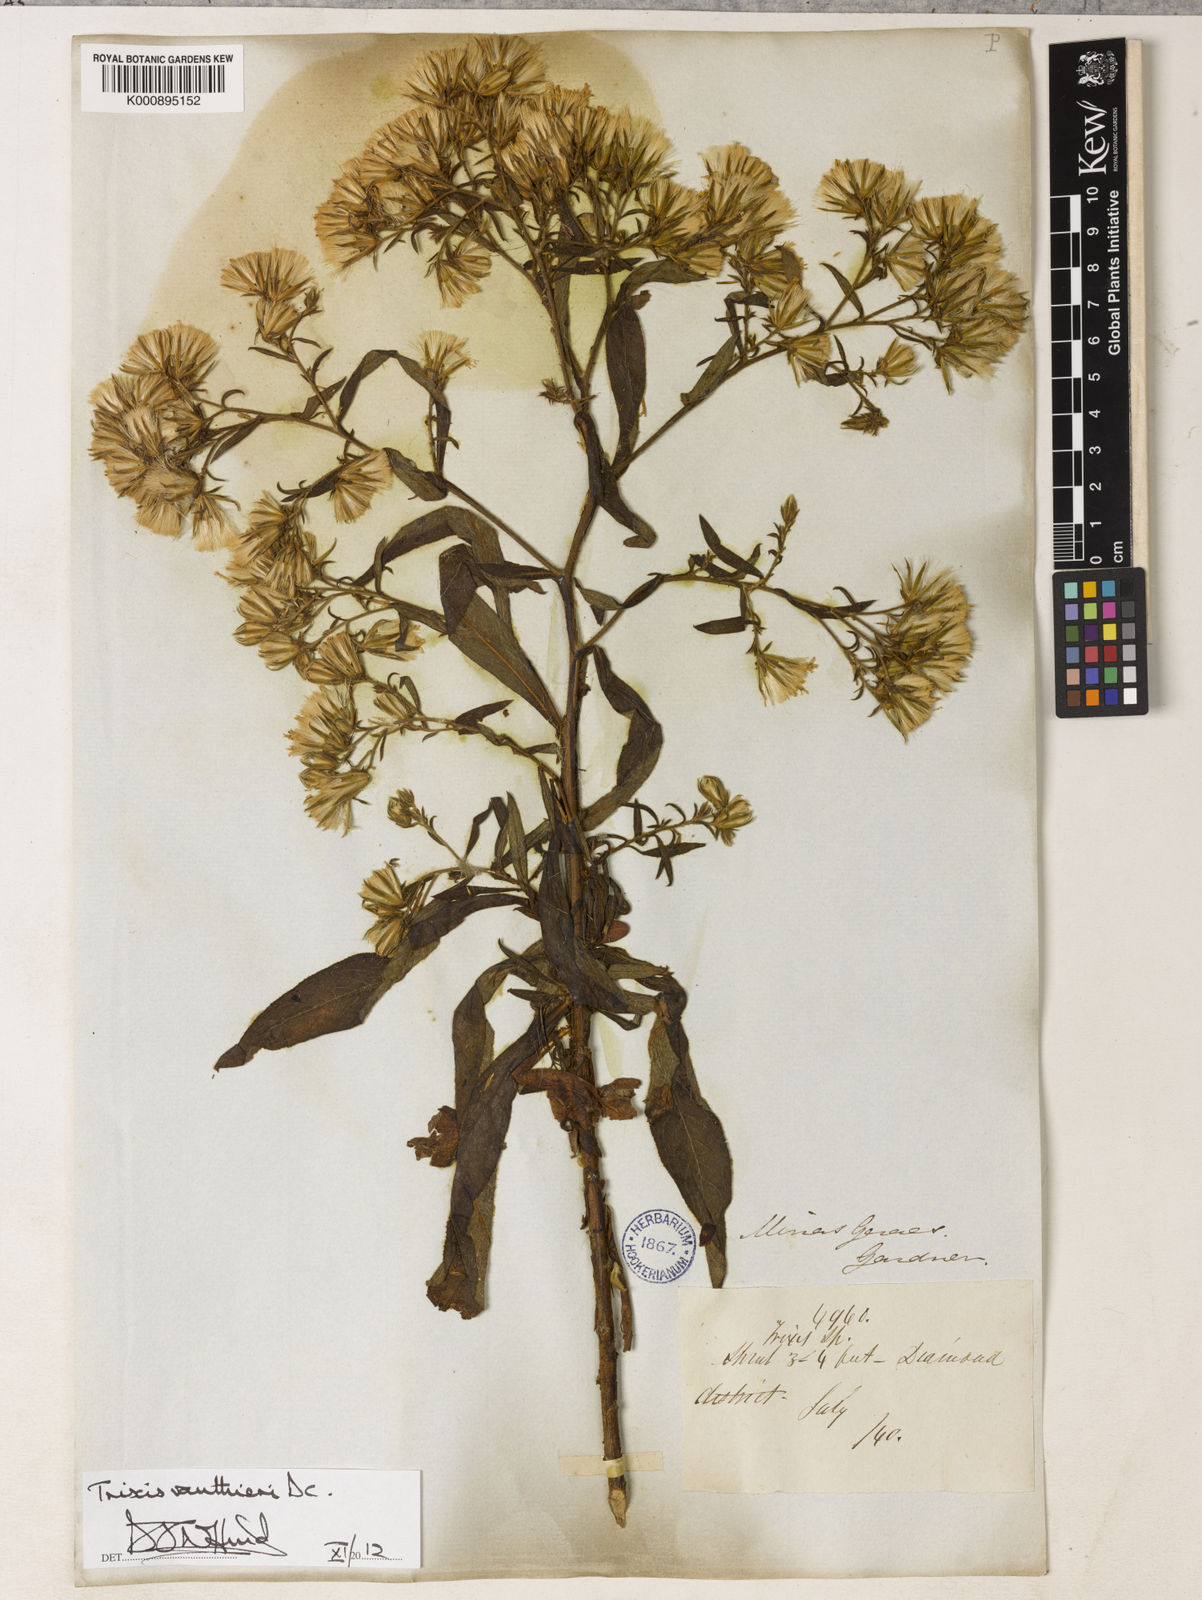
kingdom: Plantae
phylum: Tracheophyta
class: Magnoliopsida
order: Asterales
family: Asteraceae
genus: Trixis
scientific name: Trixis vauthieri
